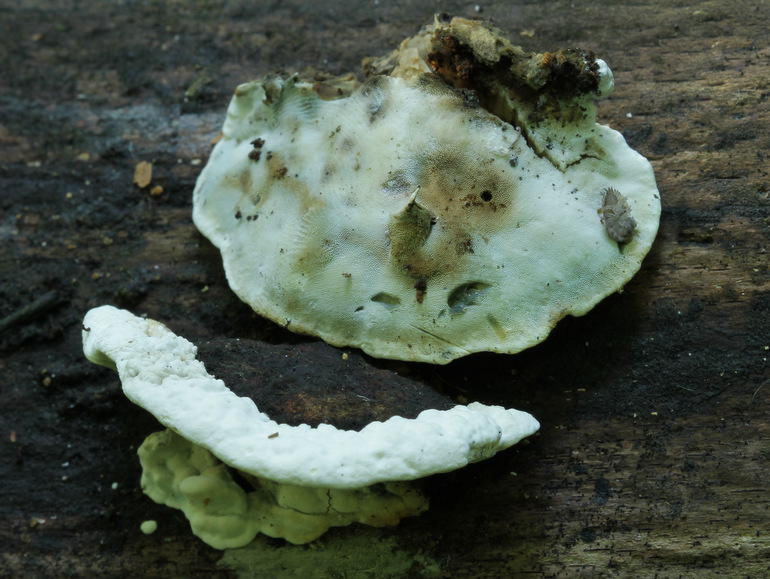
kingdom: Fungi
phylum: Basidiomycota
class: Agaricomycetes
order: Polyporales
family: Incrustoporiaceae
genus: Skeletocutis
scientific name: Skeletocutis nemoralis
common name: stor krystalporesvamp
